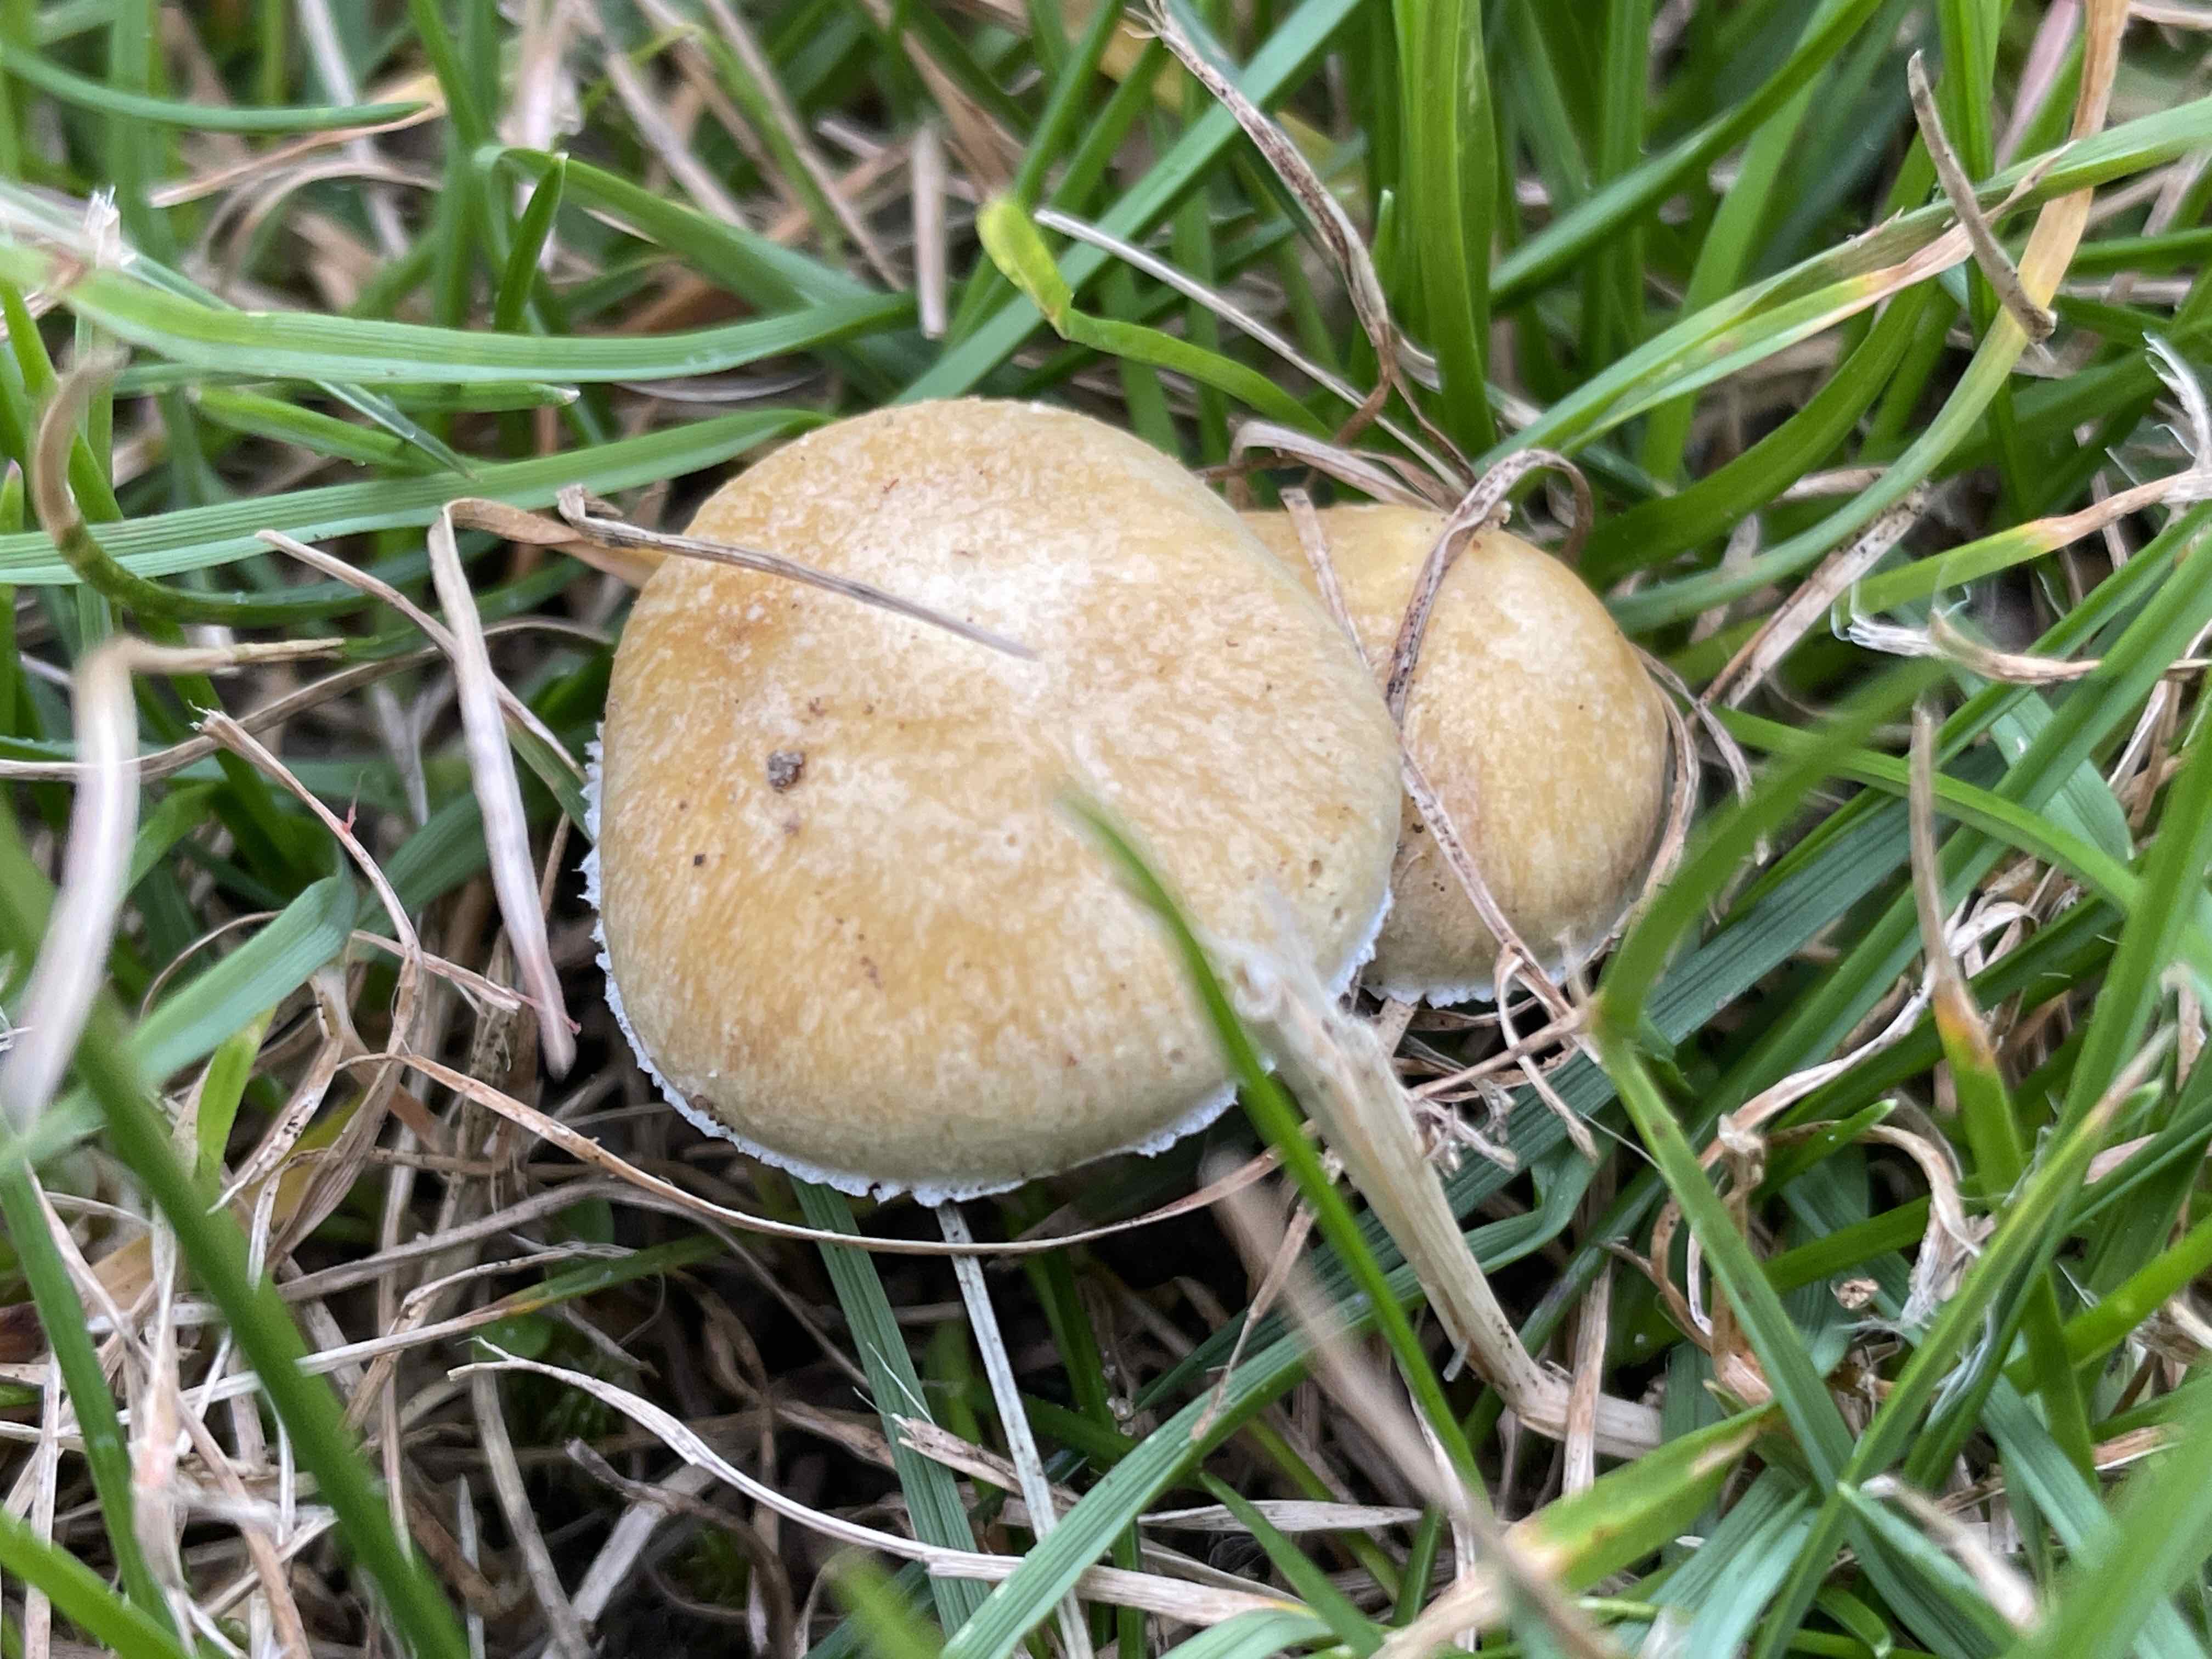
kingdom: Fungi
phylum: Basidiomycota
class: Agaricomycetes
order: Agaricales
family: Hymenogastraceae
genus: Psilocybe
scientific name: Psilocybe coronilla
